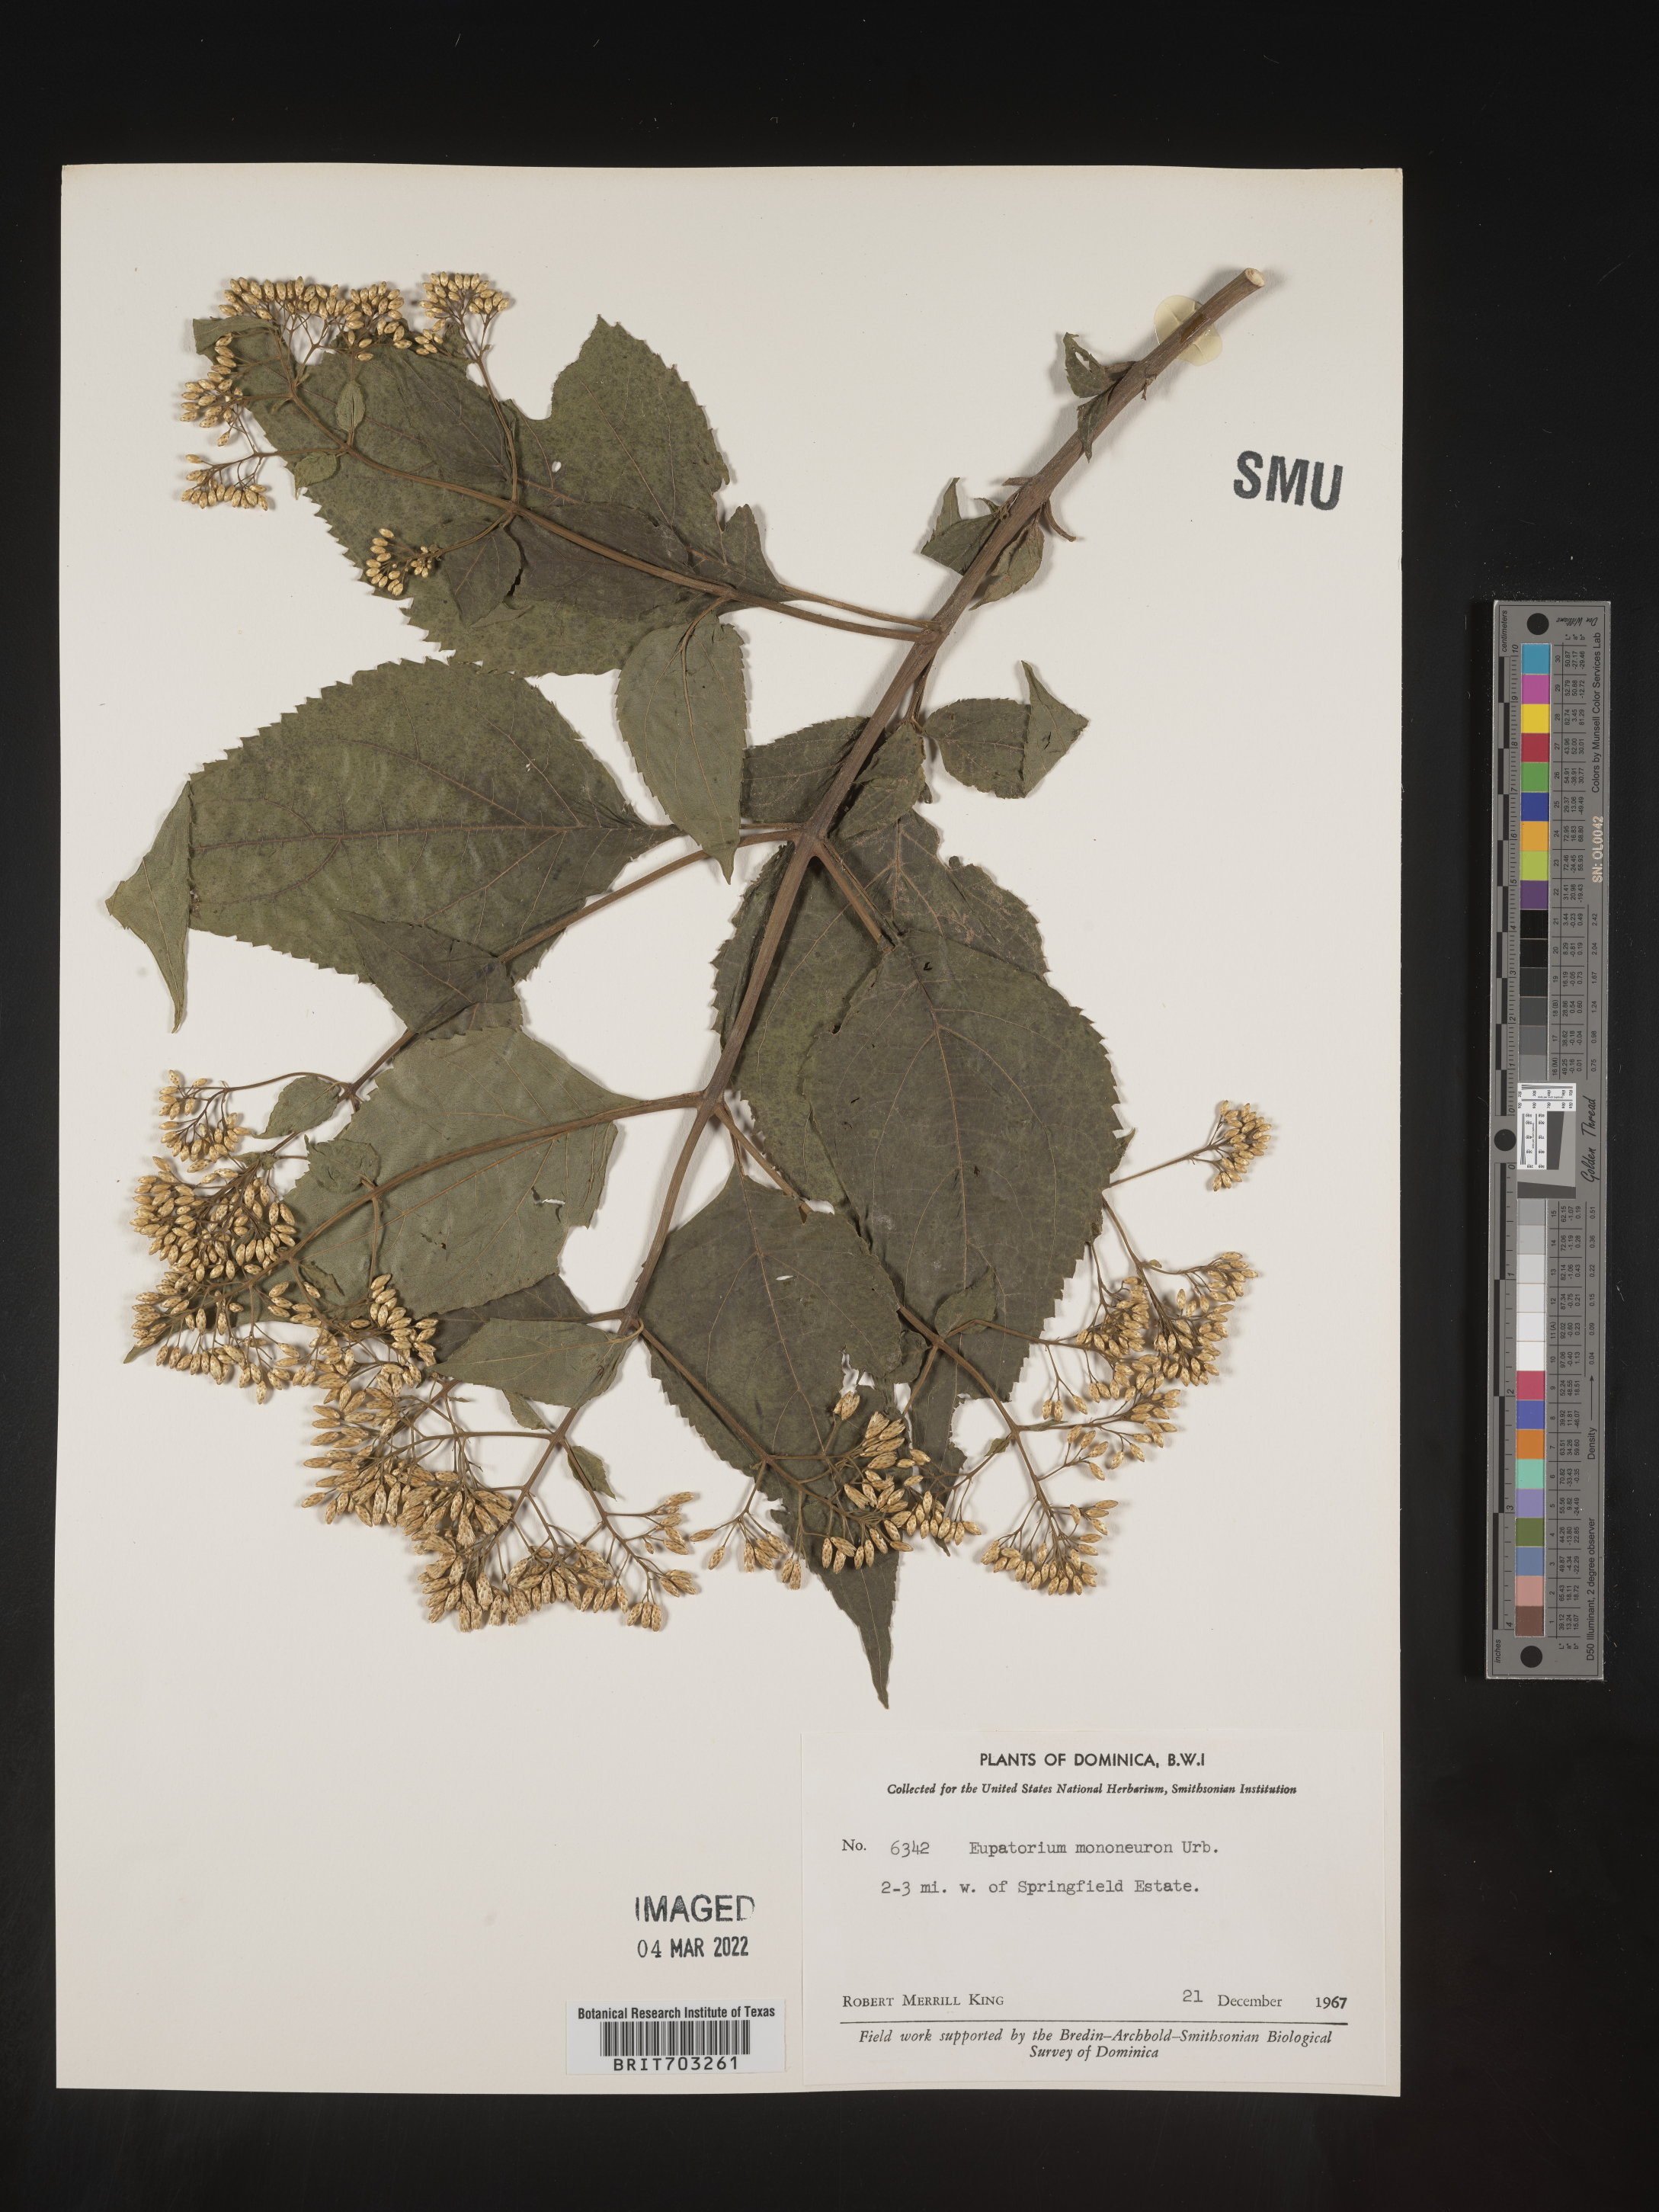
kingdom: Plantae
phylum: Tracheophyta
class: Magnoliopsida
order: Asterales
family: Asteraceae
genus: Eupatorium
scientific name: Eupatorium
